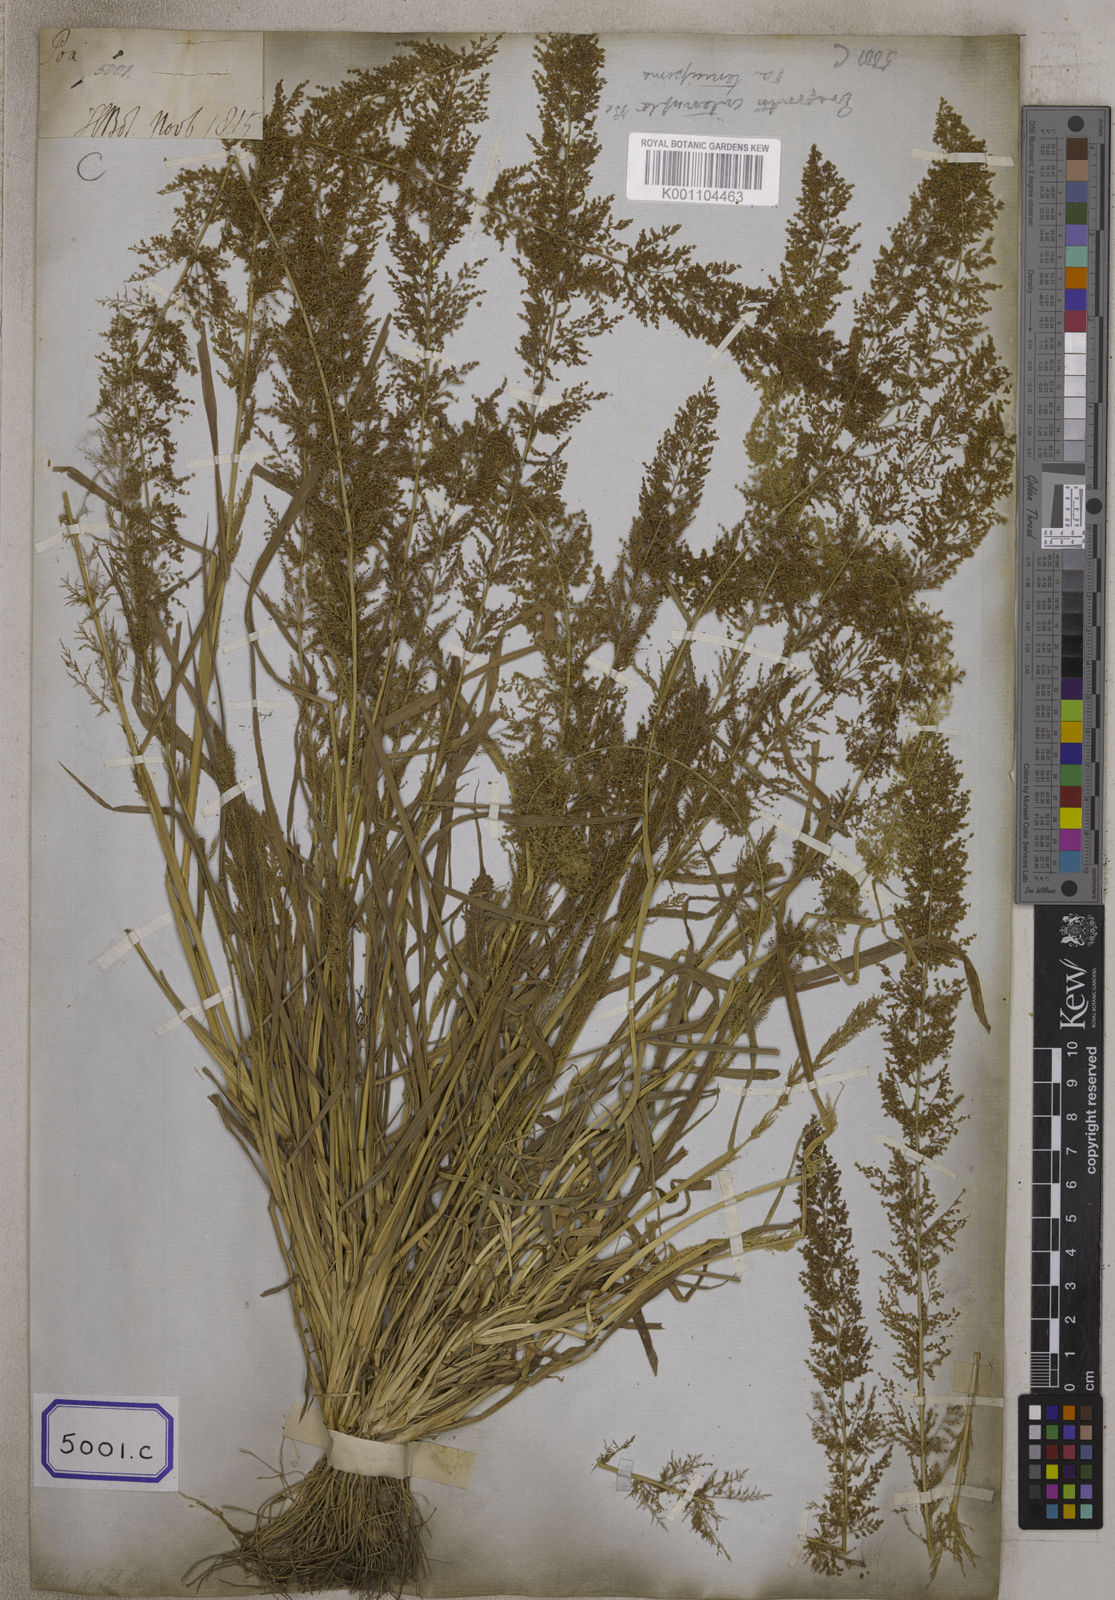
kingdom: Plantae
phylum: Tracheophyta
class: Liliopsida
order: Poales
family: Poaceae
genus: Eragrostis
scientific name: Eragrostis
